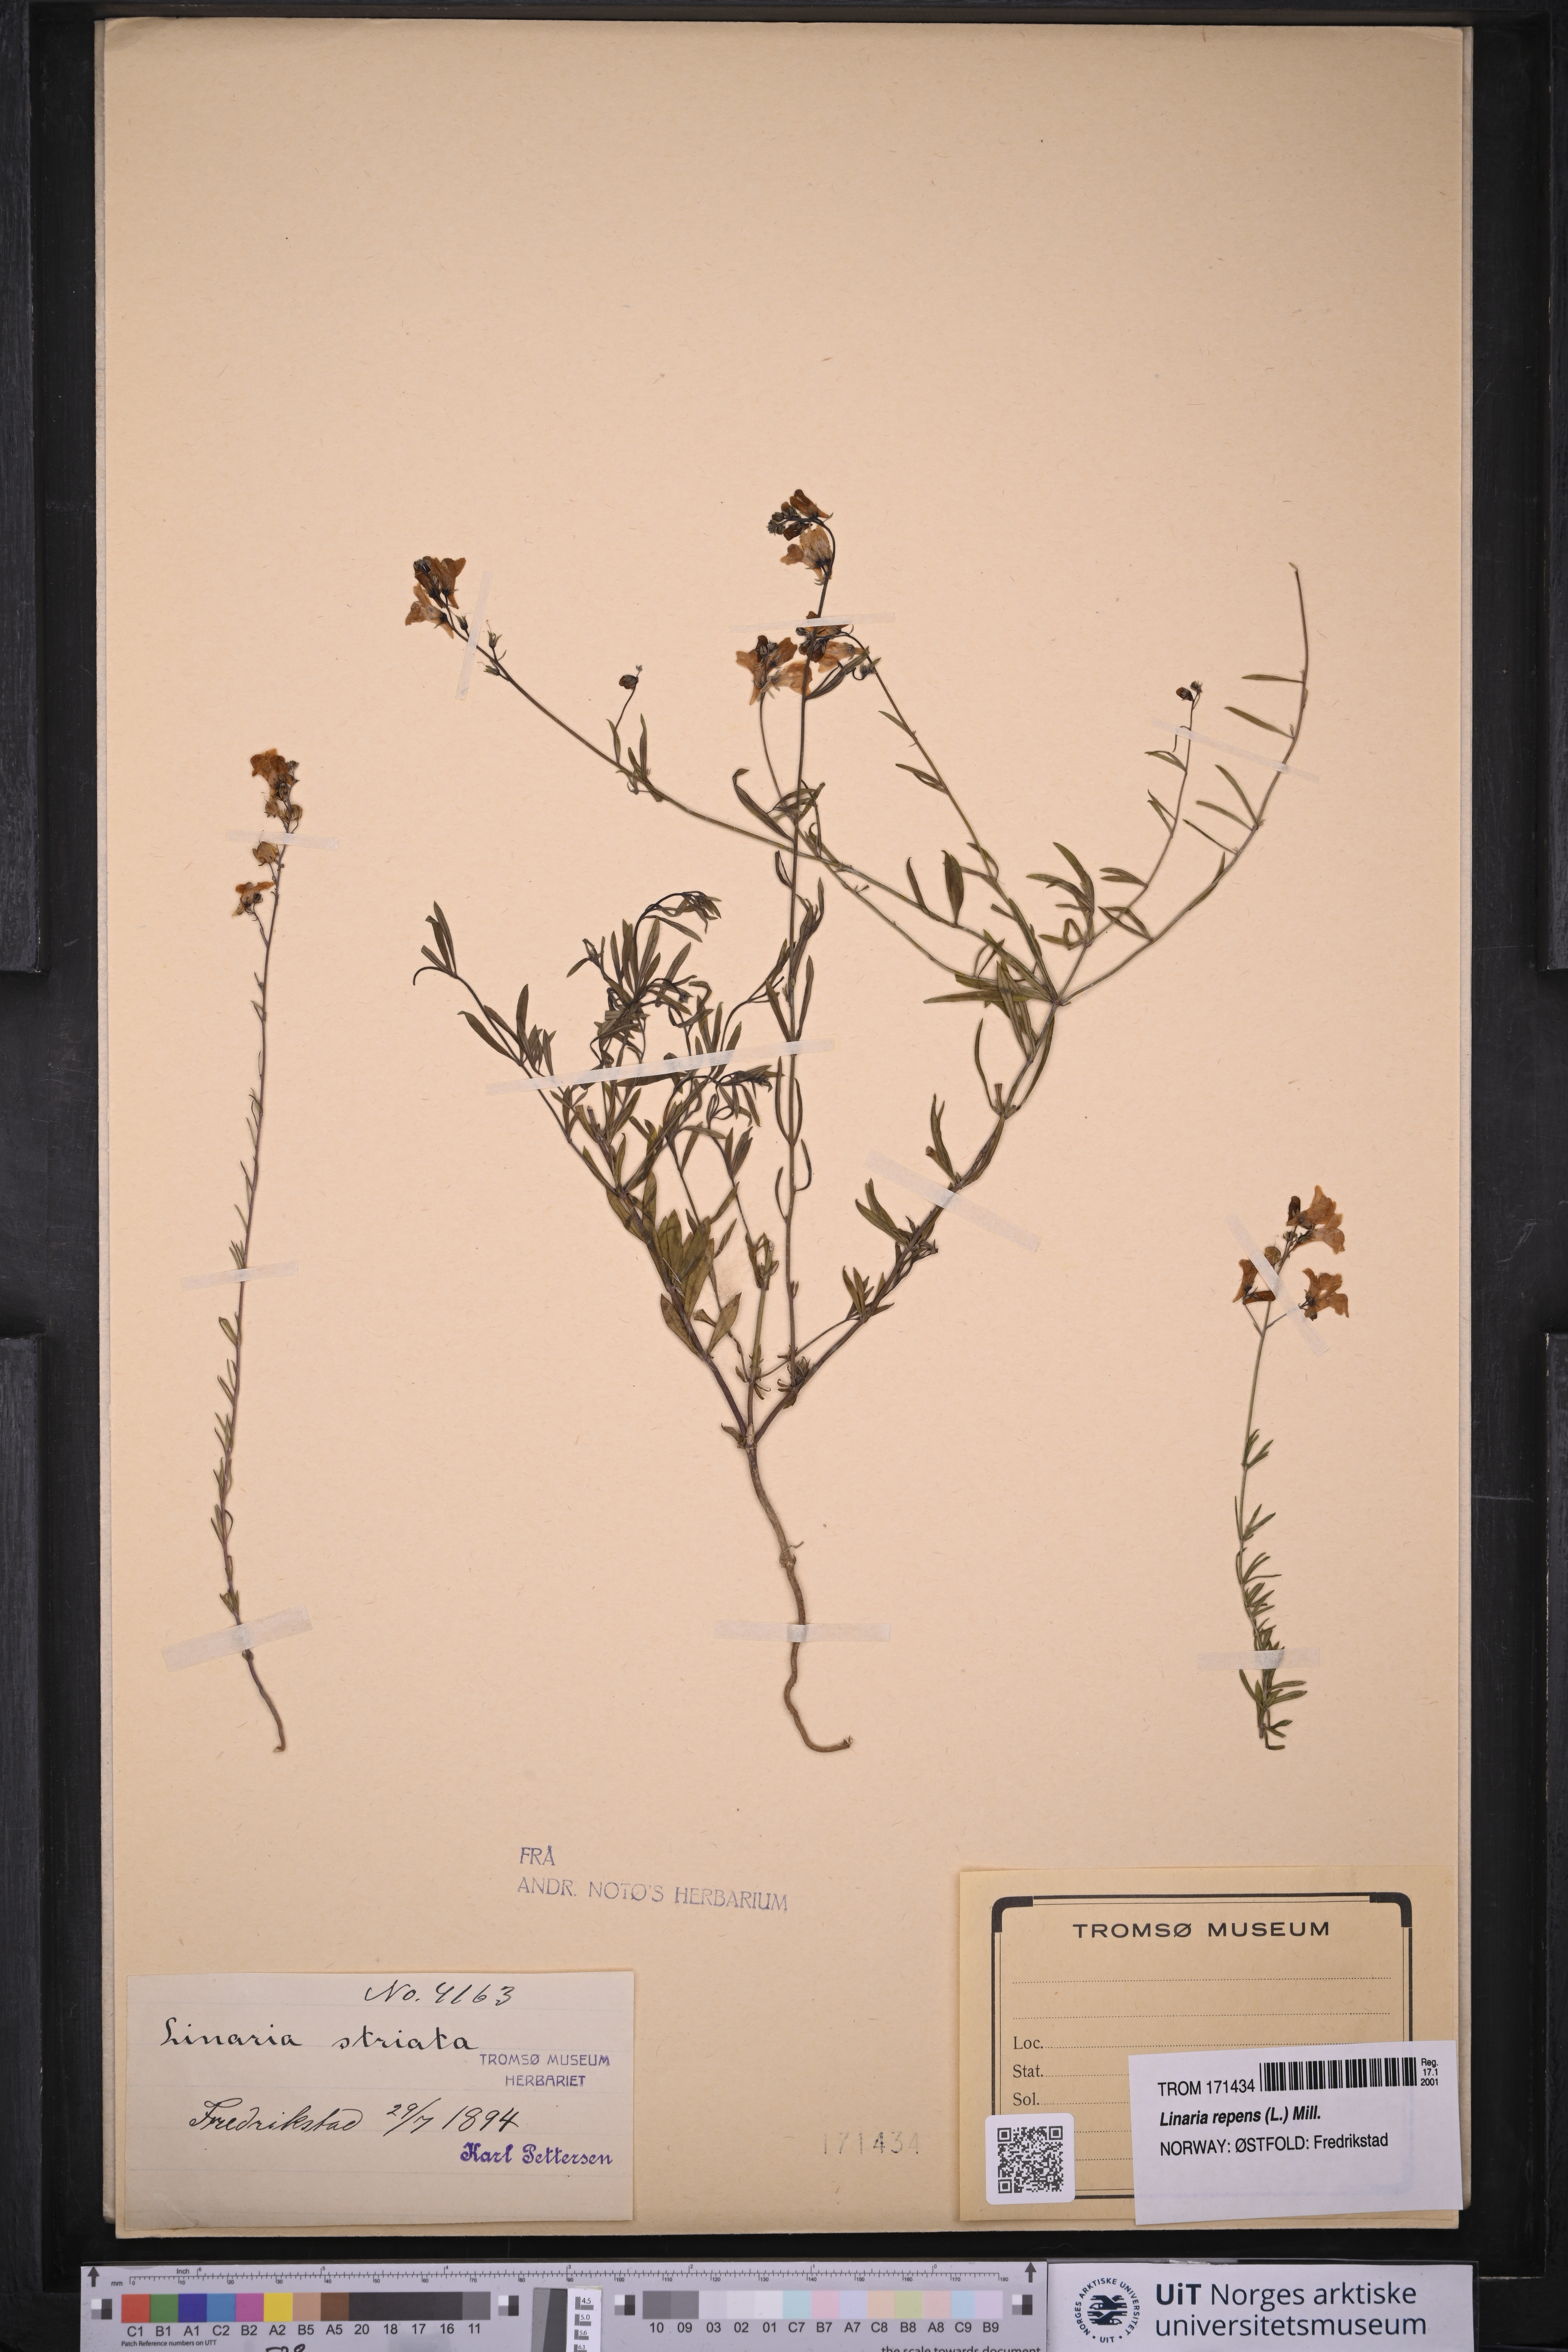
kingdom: Plantae
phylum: Tracheophyta
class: Magnoliopsida
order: Lamiales
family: Plantaginaceae
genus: Linaria
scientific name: Linaria repens
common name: Pale toadflax
